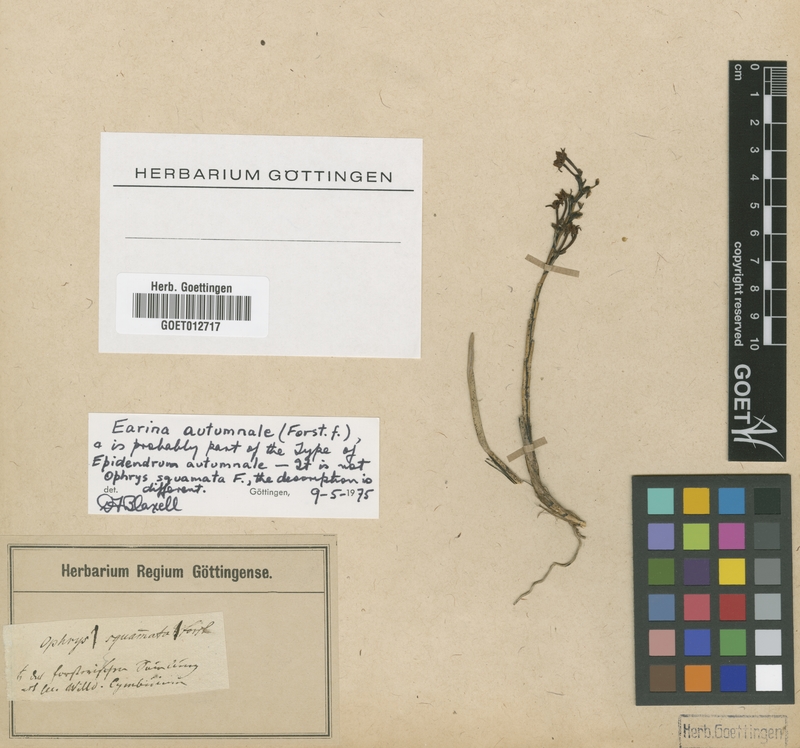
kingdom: Plantae
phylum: Tracheophyta
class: Liliopsida
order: Asparagales
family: Orchidaceae
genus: Earina
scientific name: Earina autumnalis
